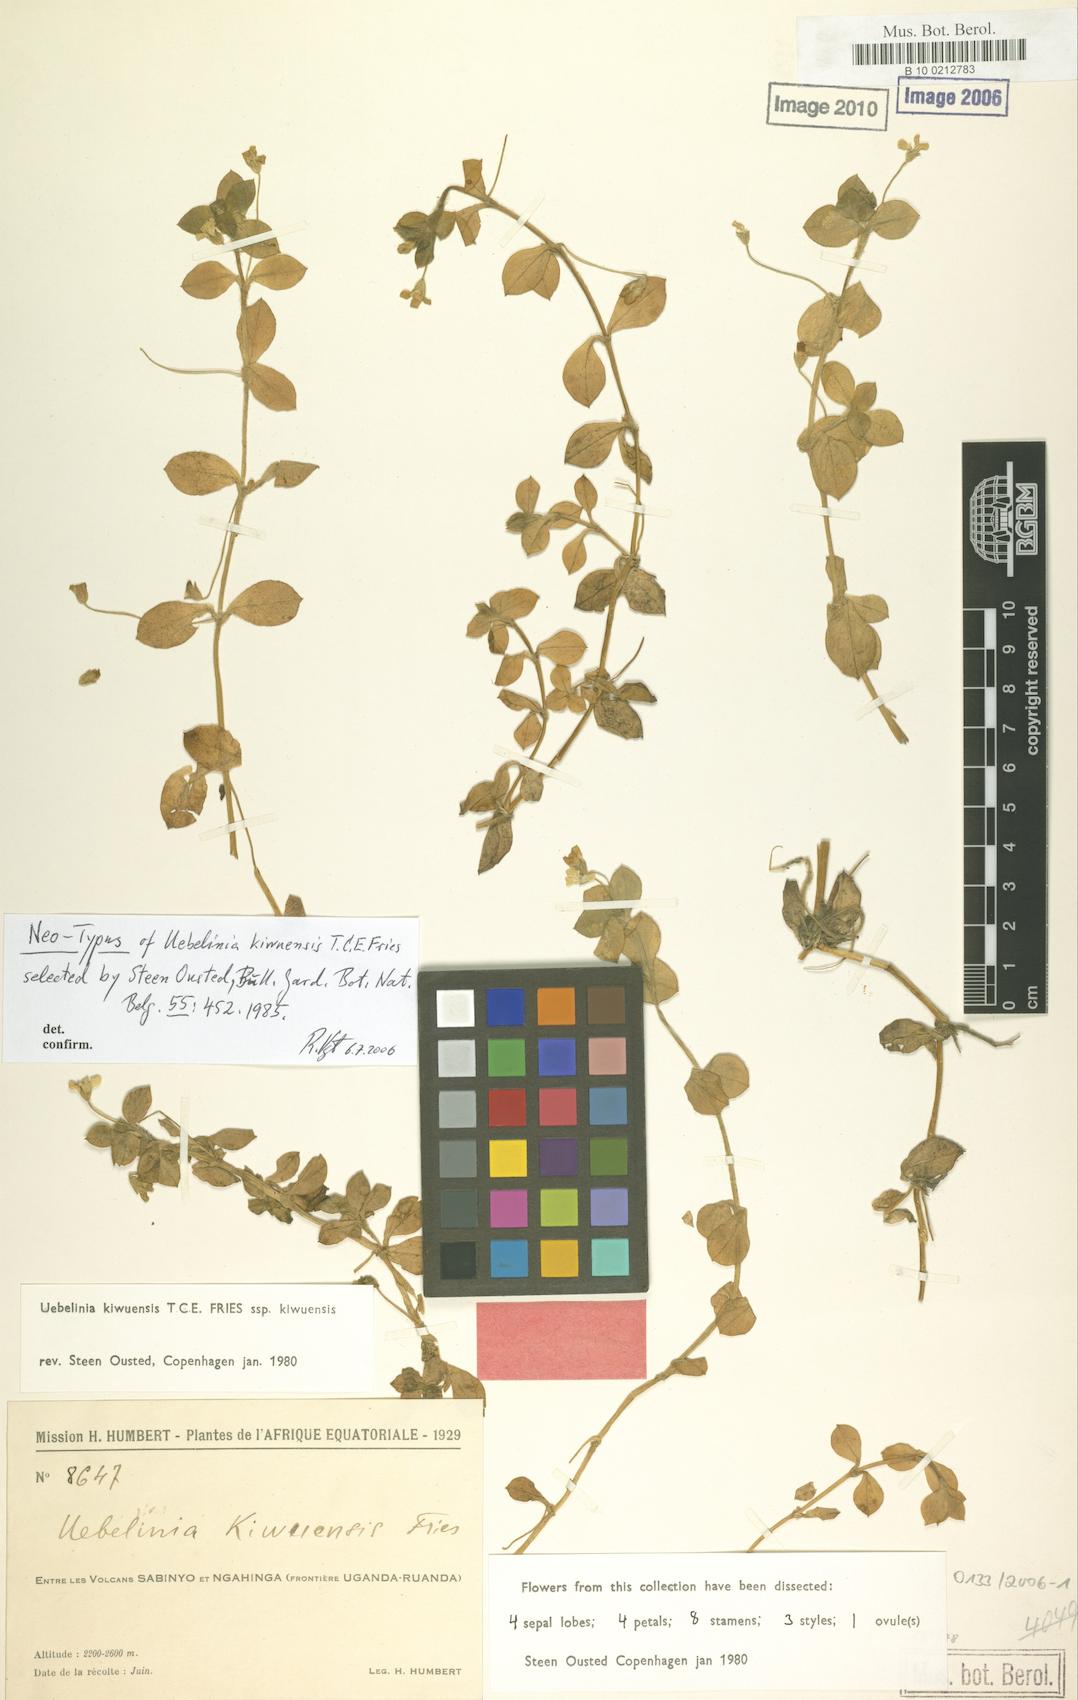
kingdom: Plantae
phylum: Tracheophyta
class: Magnoliopsida
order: Caryophyllales
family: Caryophyllaceae
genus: Silene
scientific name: Silene kiwuensis
